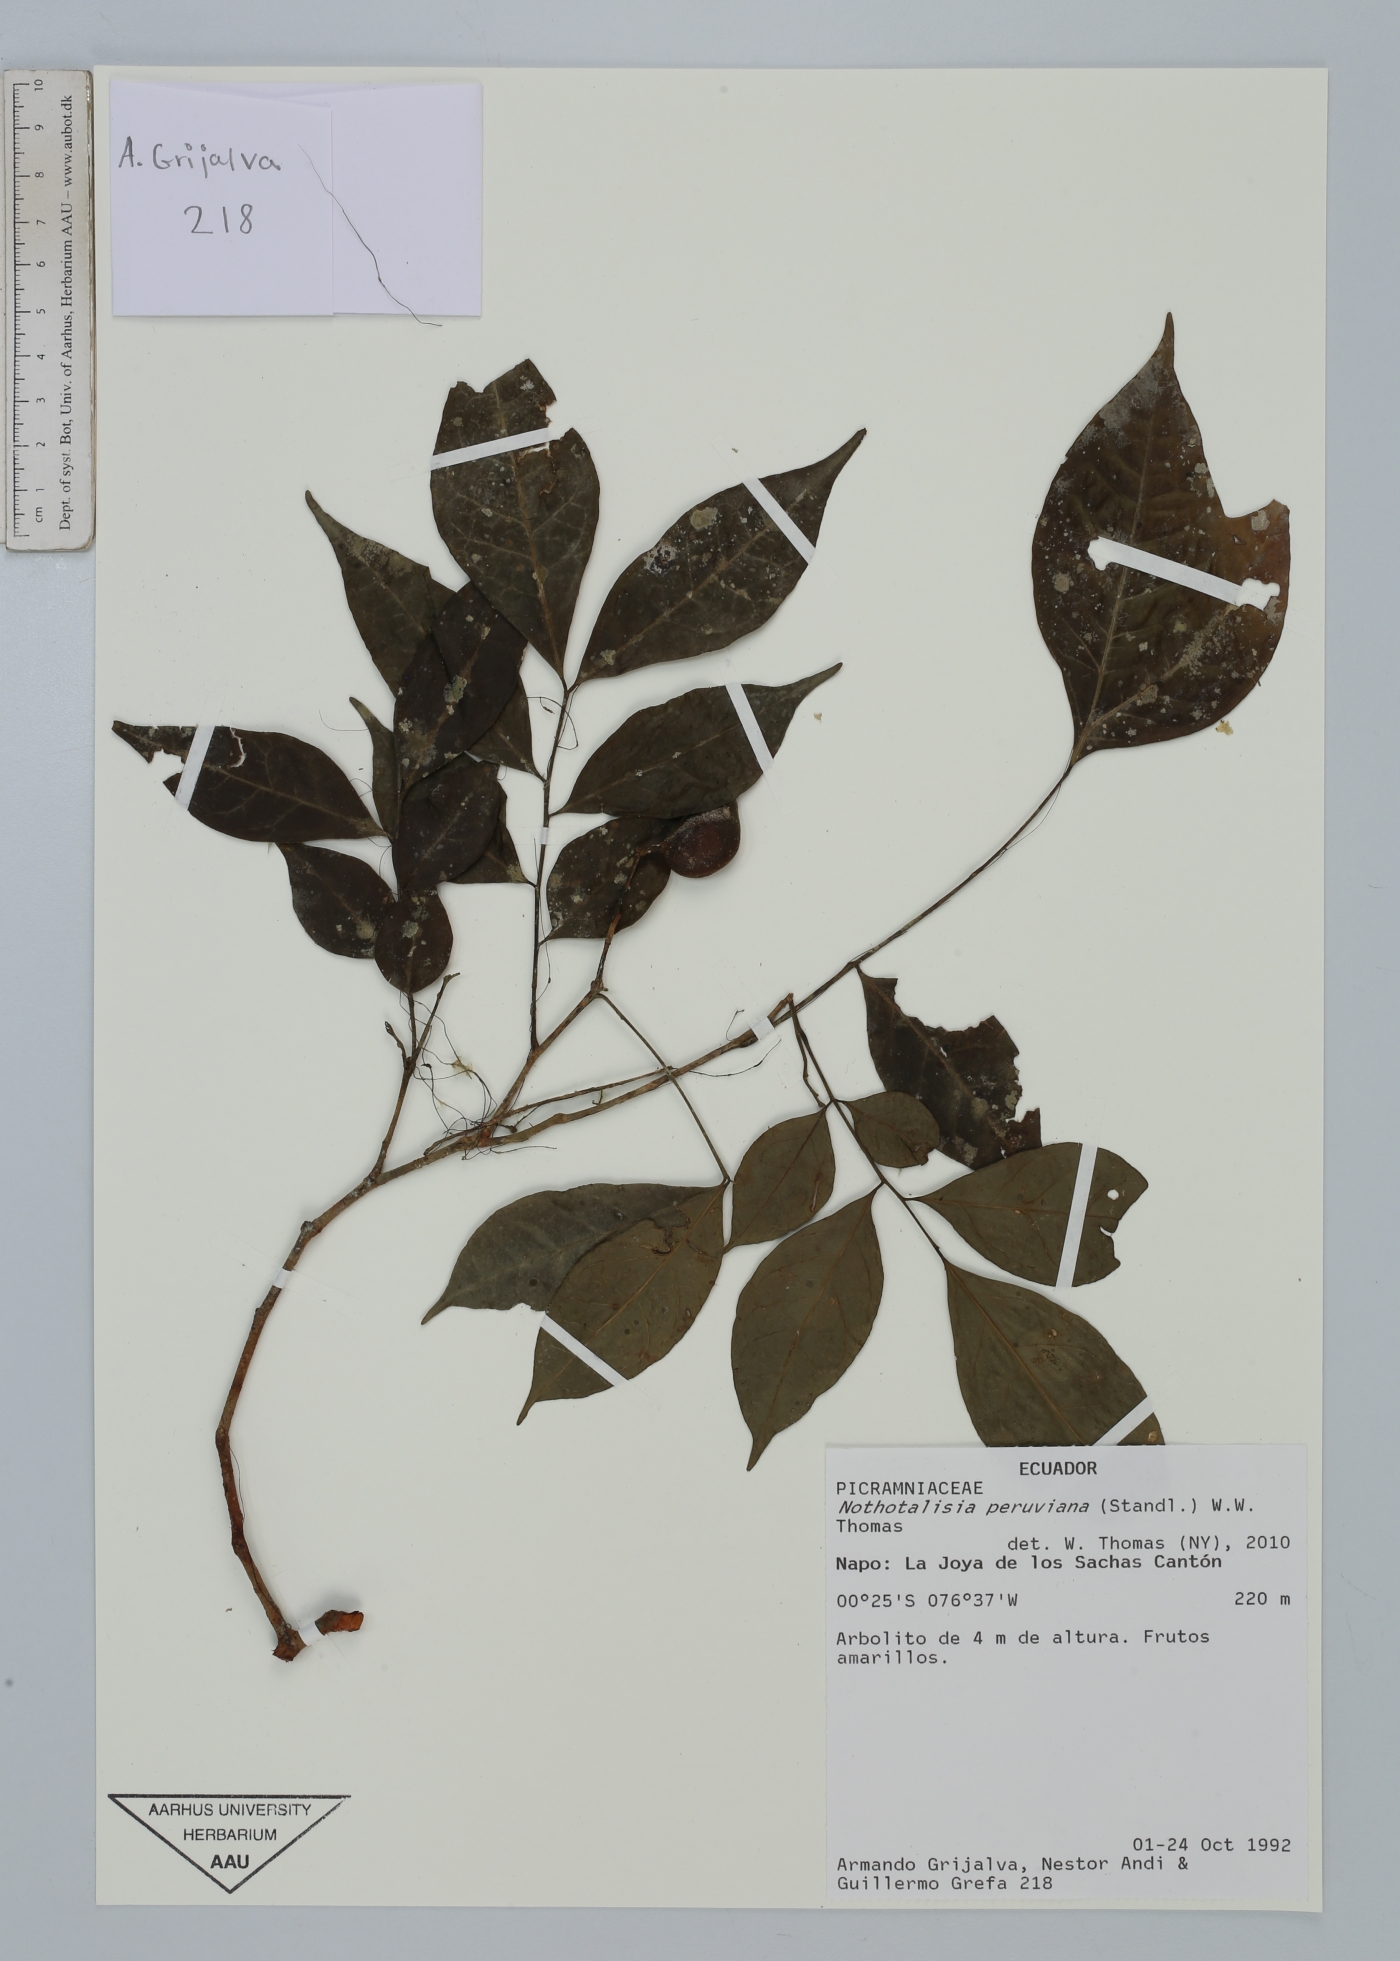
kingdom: Plantae
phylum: Tracheophyta
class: Magnoliopsida
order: Picramniales
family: Picramniaceae
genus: Nothotalisia
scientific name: Nothotalisia peruviana
